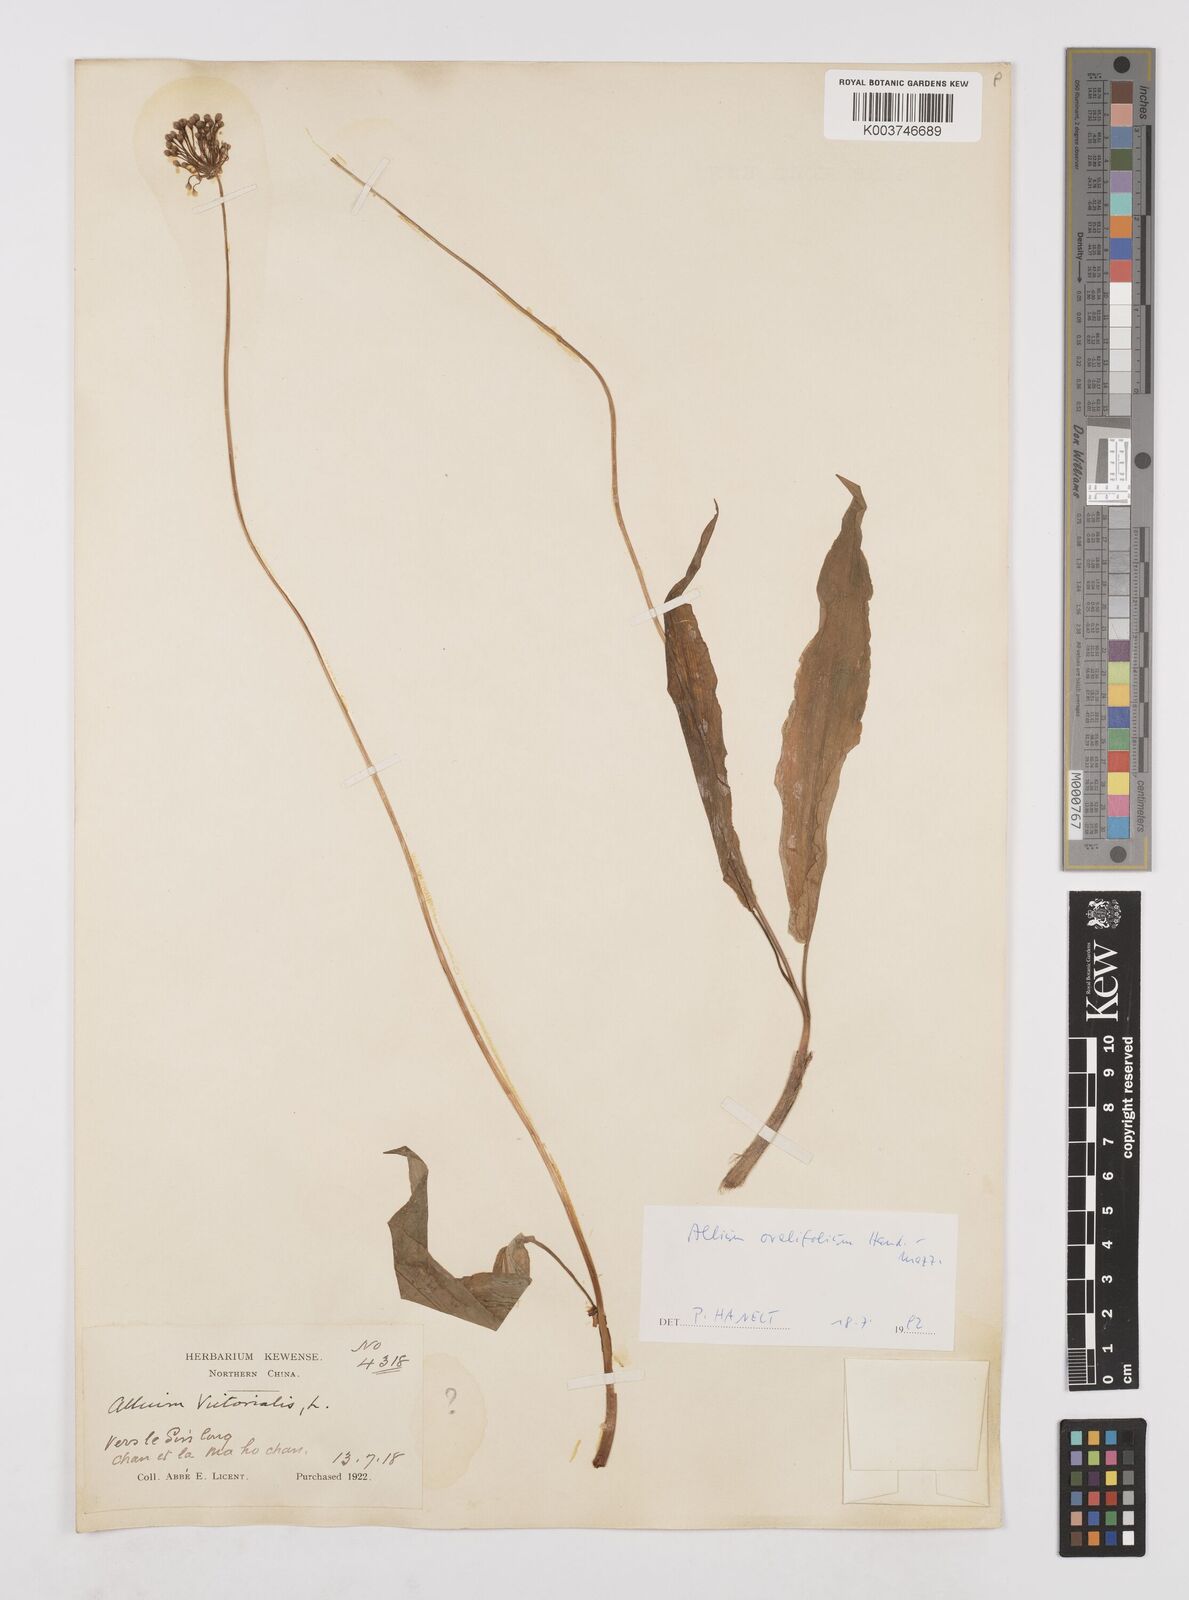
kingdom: Plantae
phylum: Tracheophyta
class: Liliopsida
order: Asparagales
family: Amaryllidaceae
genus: Allium
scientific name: Allium ovalifolium
